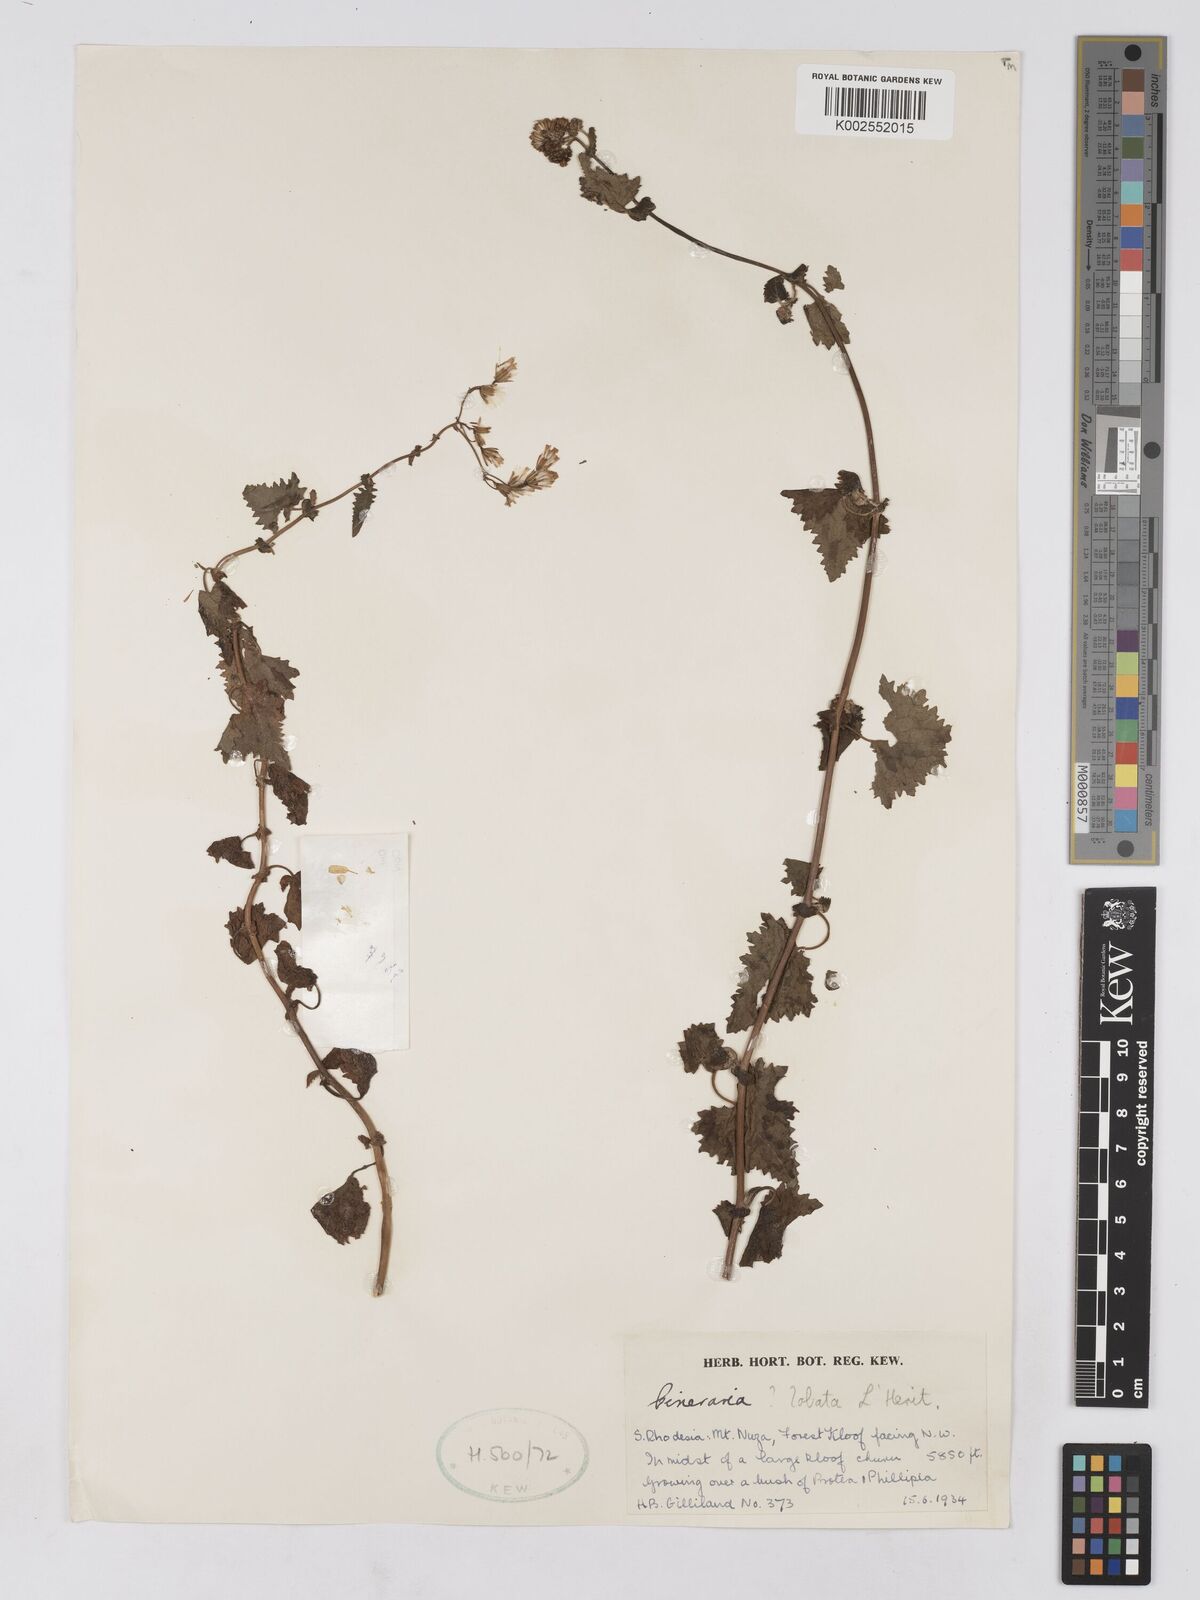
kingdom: Plantae
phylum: Tracheophyta
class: Magnoliopsida
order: Asterales
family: Asteraceae
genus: Cineraria
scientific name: Cineraria deltoidea
